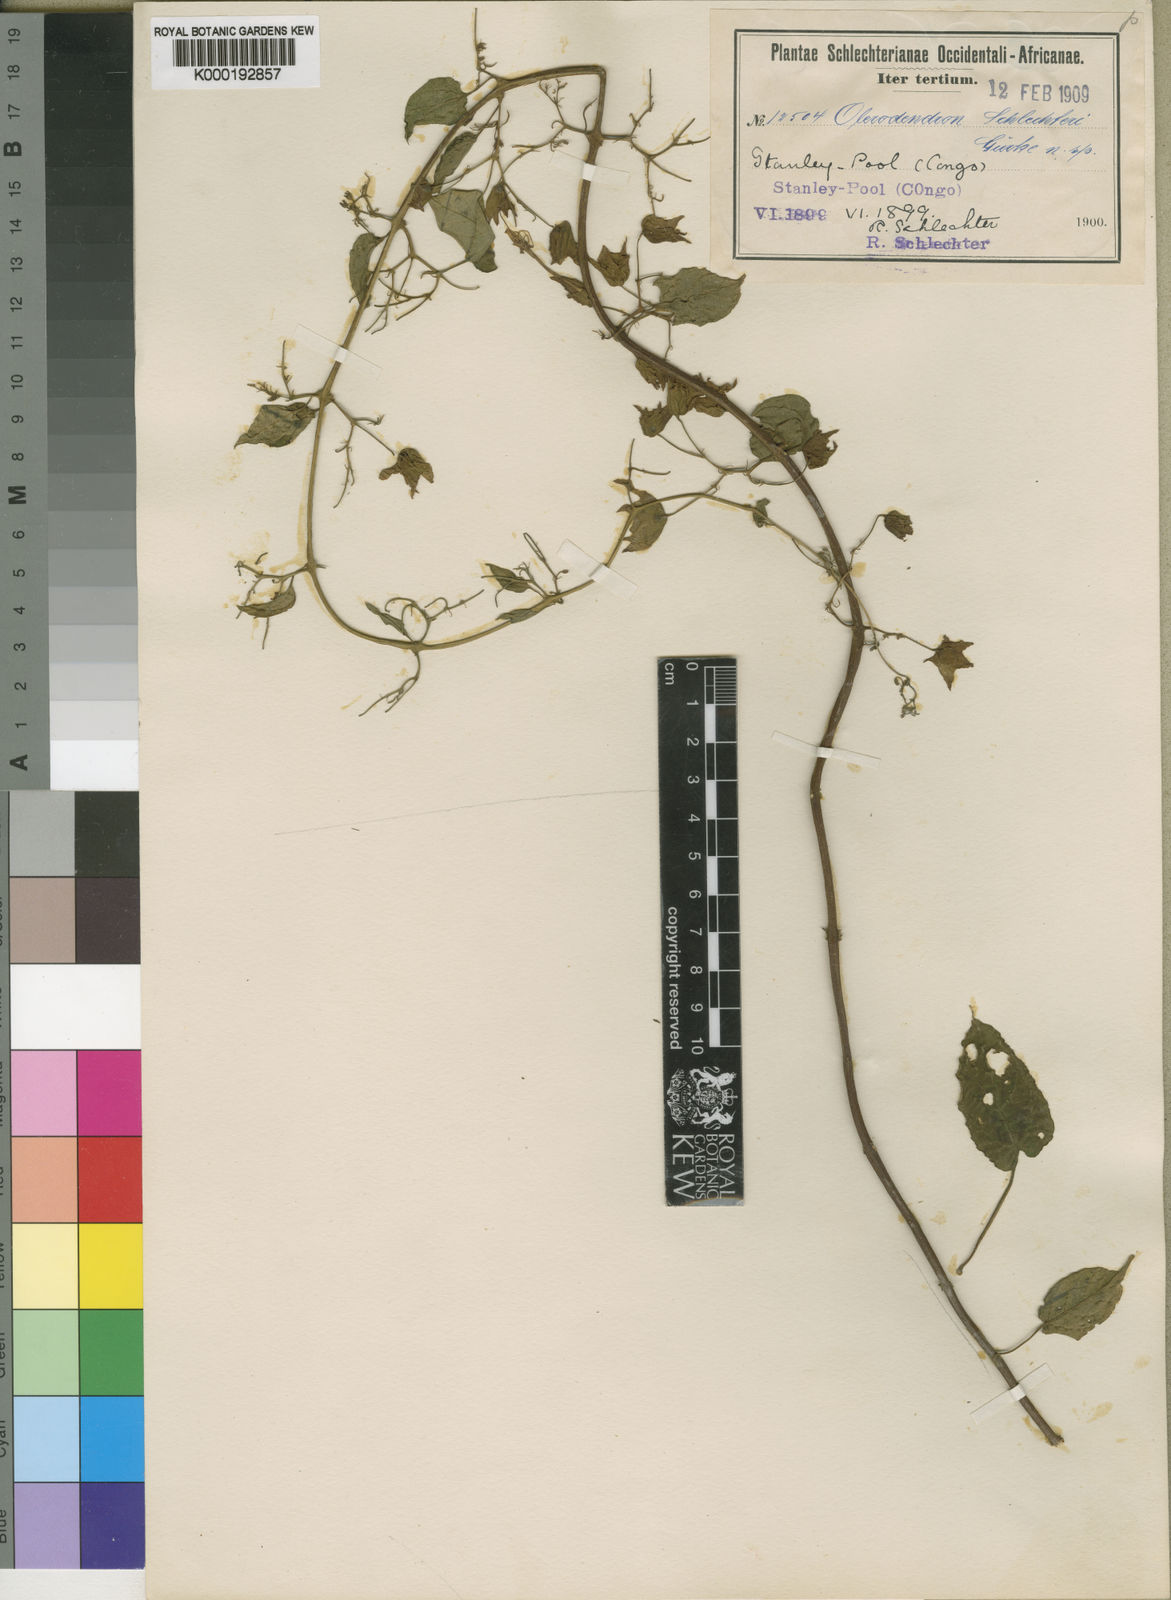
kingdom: Plantae
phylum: Tracheophyta
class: Magnoliopsida
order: Lamiales
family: Lamiaceae
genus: Clerodendrum
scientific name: Clerodendrum
